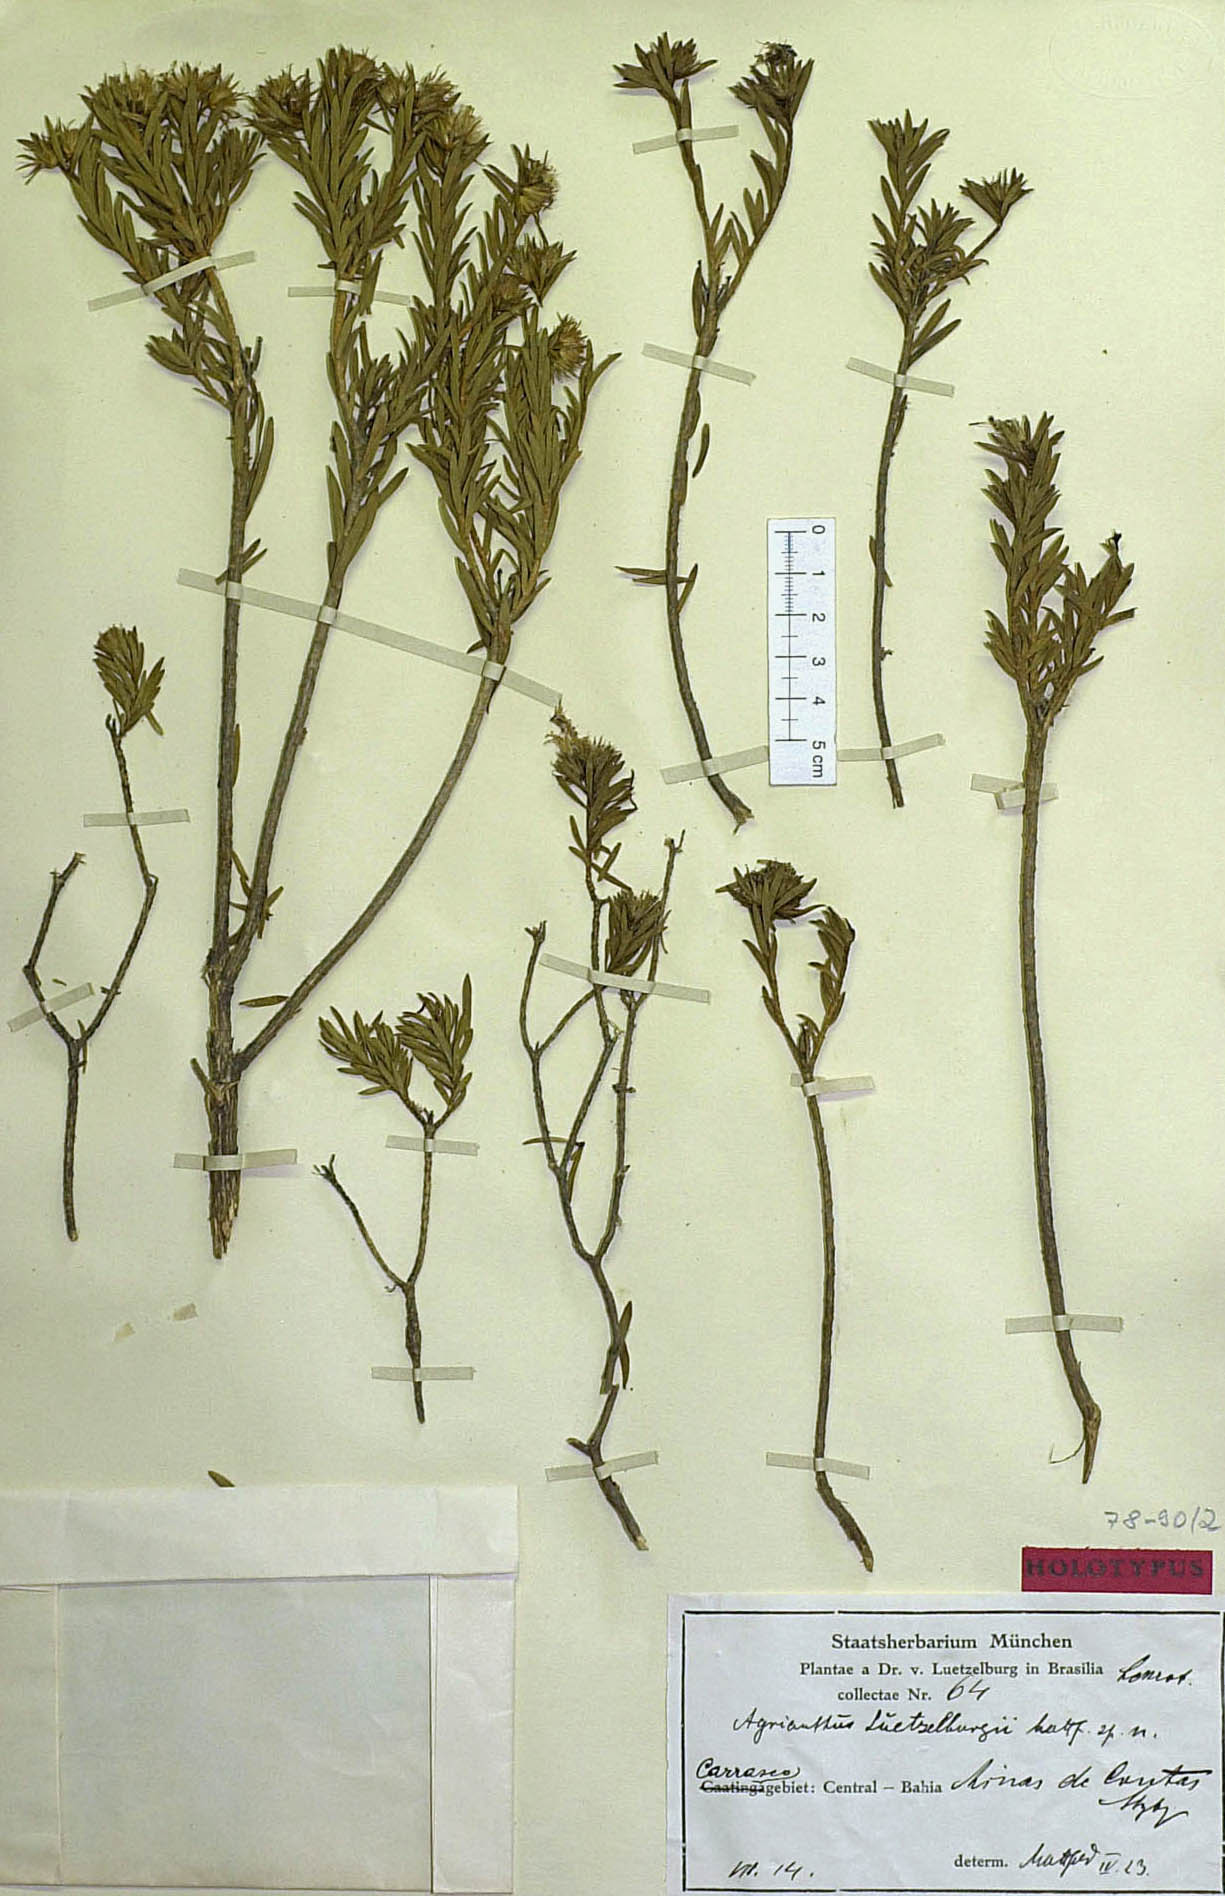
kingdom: Plantae
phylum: Tracheophyta
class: Magnoliopsida
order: Asterales
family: Asteraceae
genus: Agrianthus
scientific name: Agrianthus luetzelburgii
